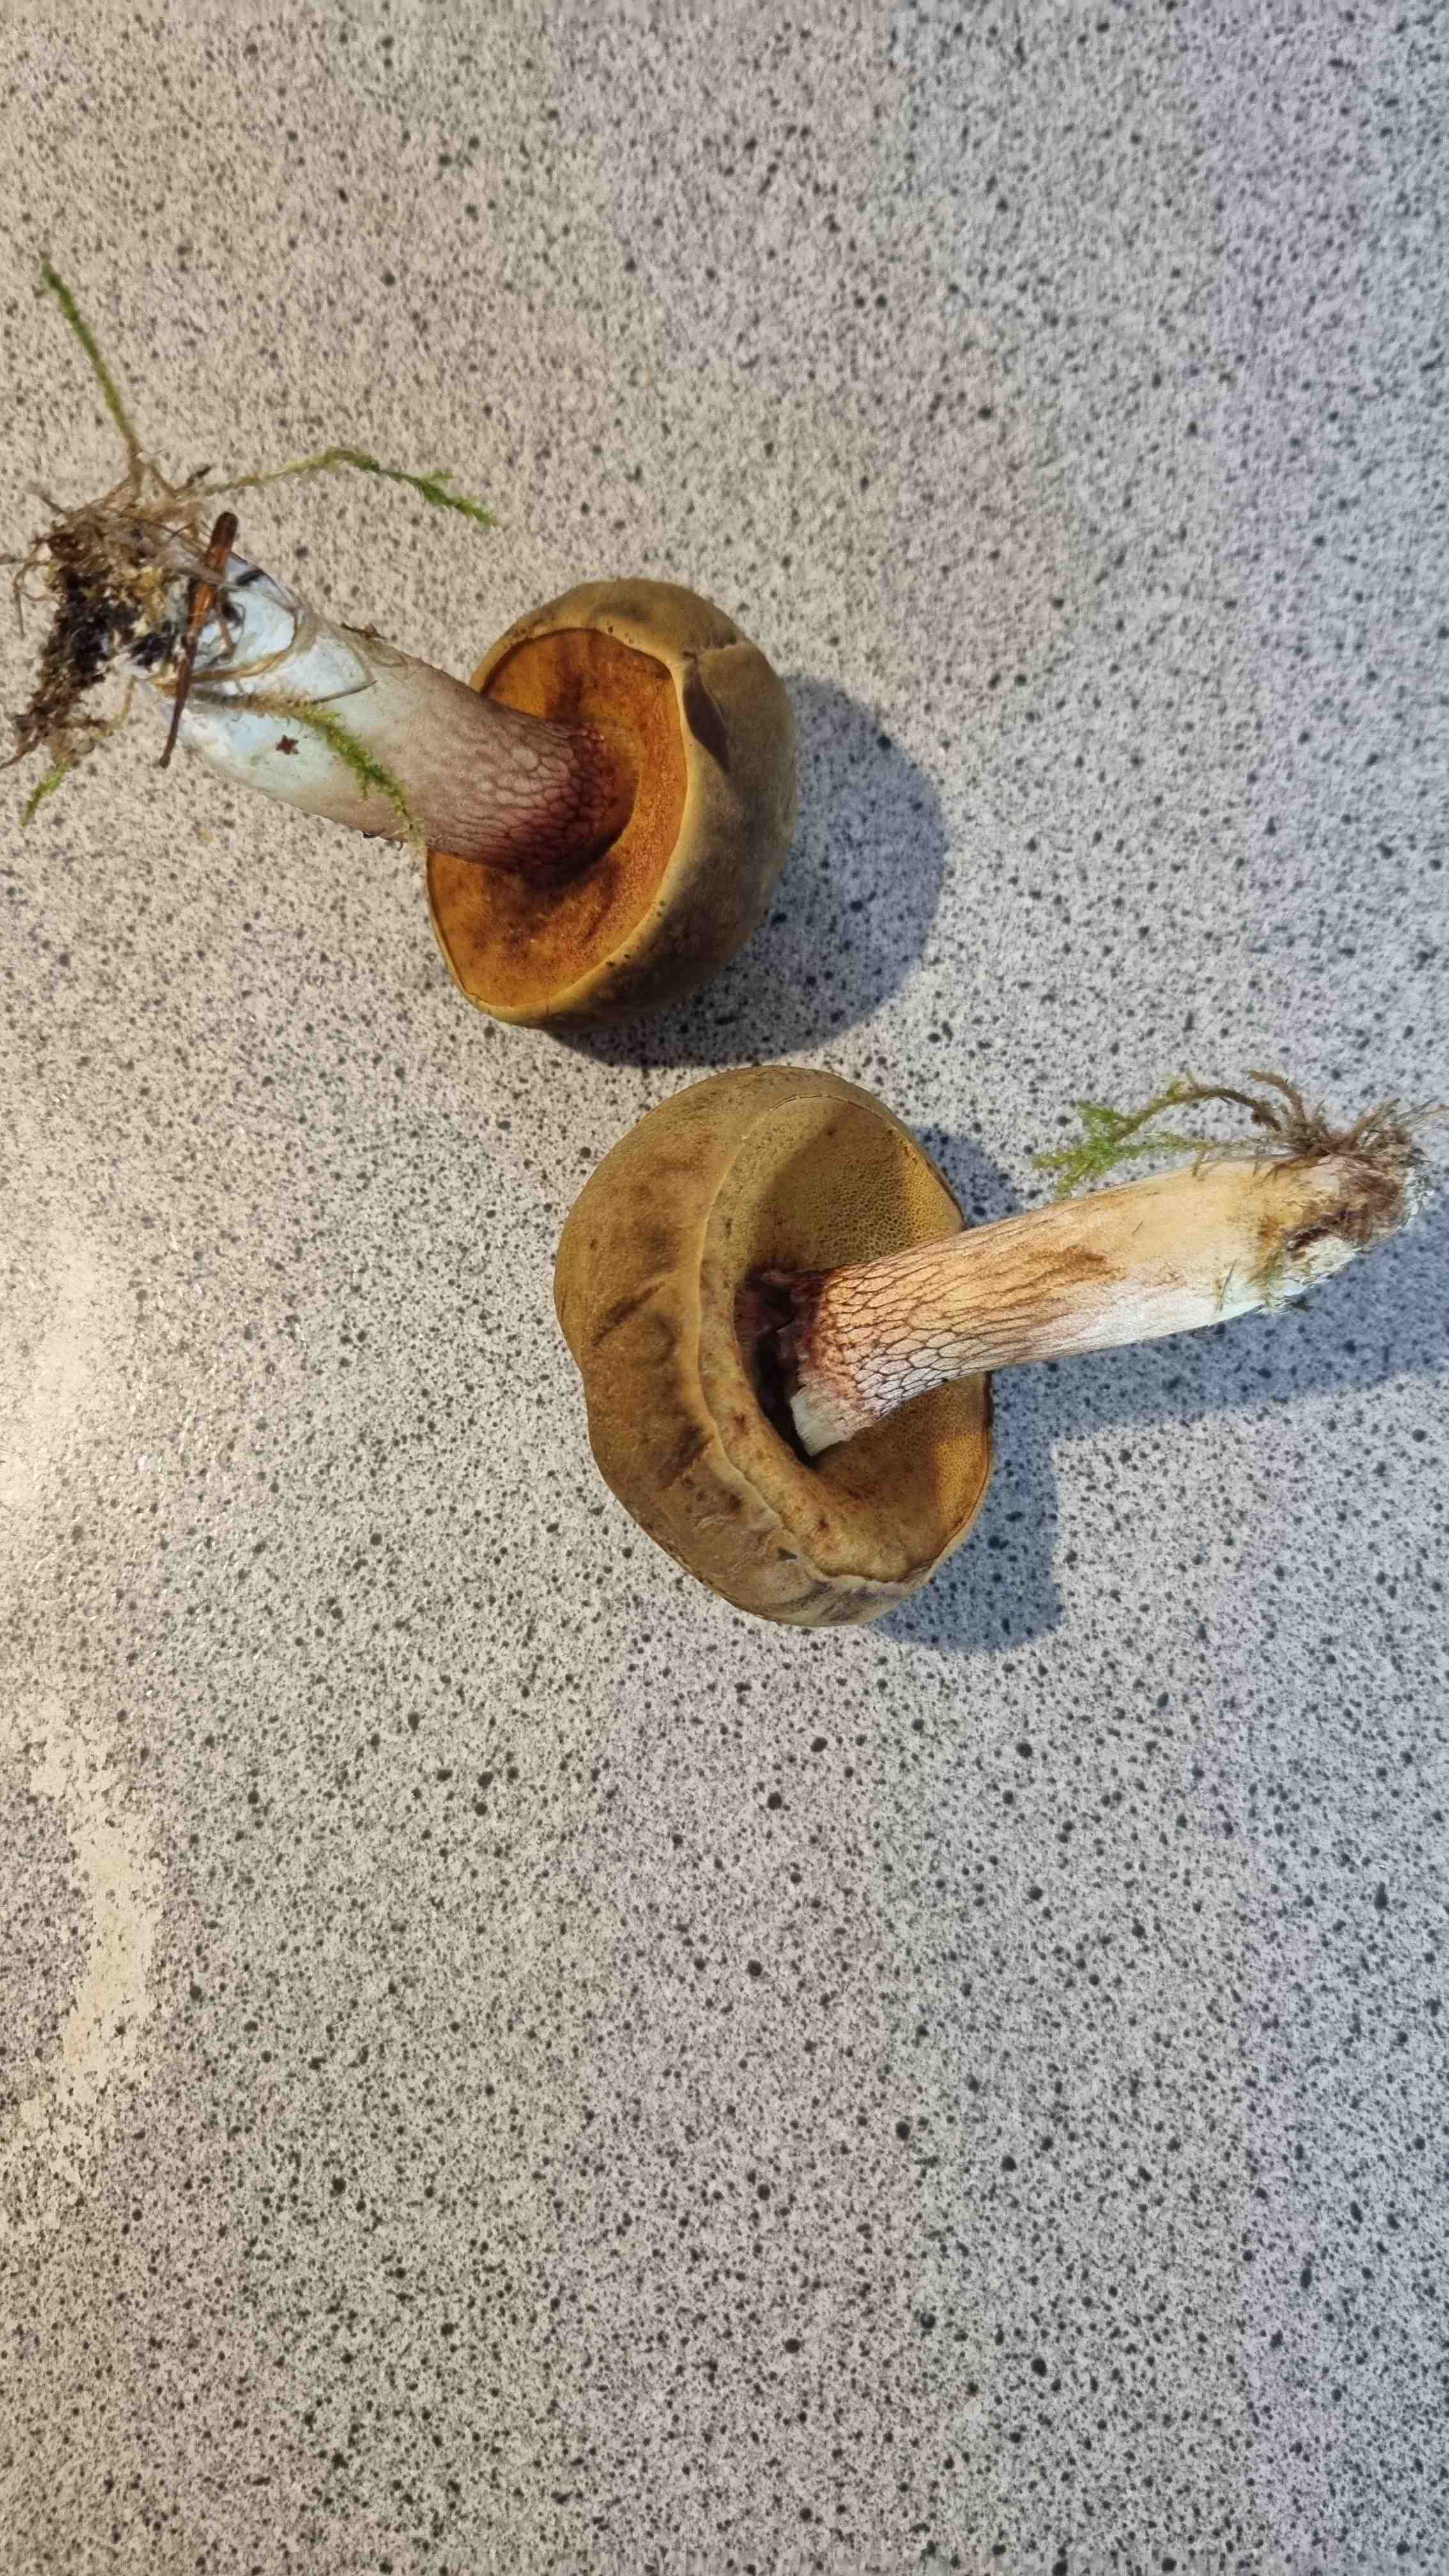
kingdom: Fungi
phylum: Basidiomycota
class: Agaricomycetes
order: Boletales
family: Boletaceae
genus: Xerocomus
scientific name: Xerocomus ferrugineus
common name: vaskeskinds-rørhat
